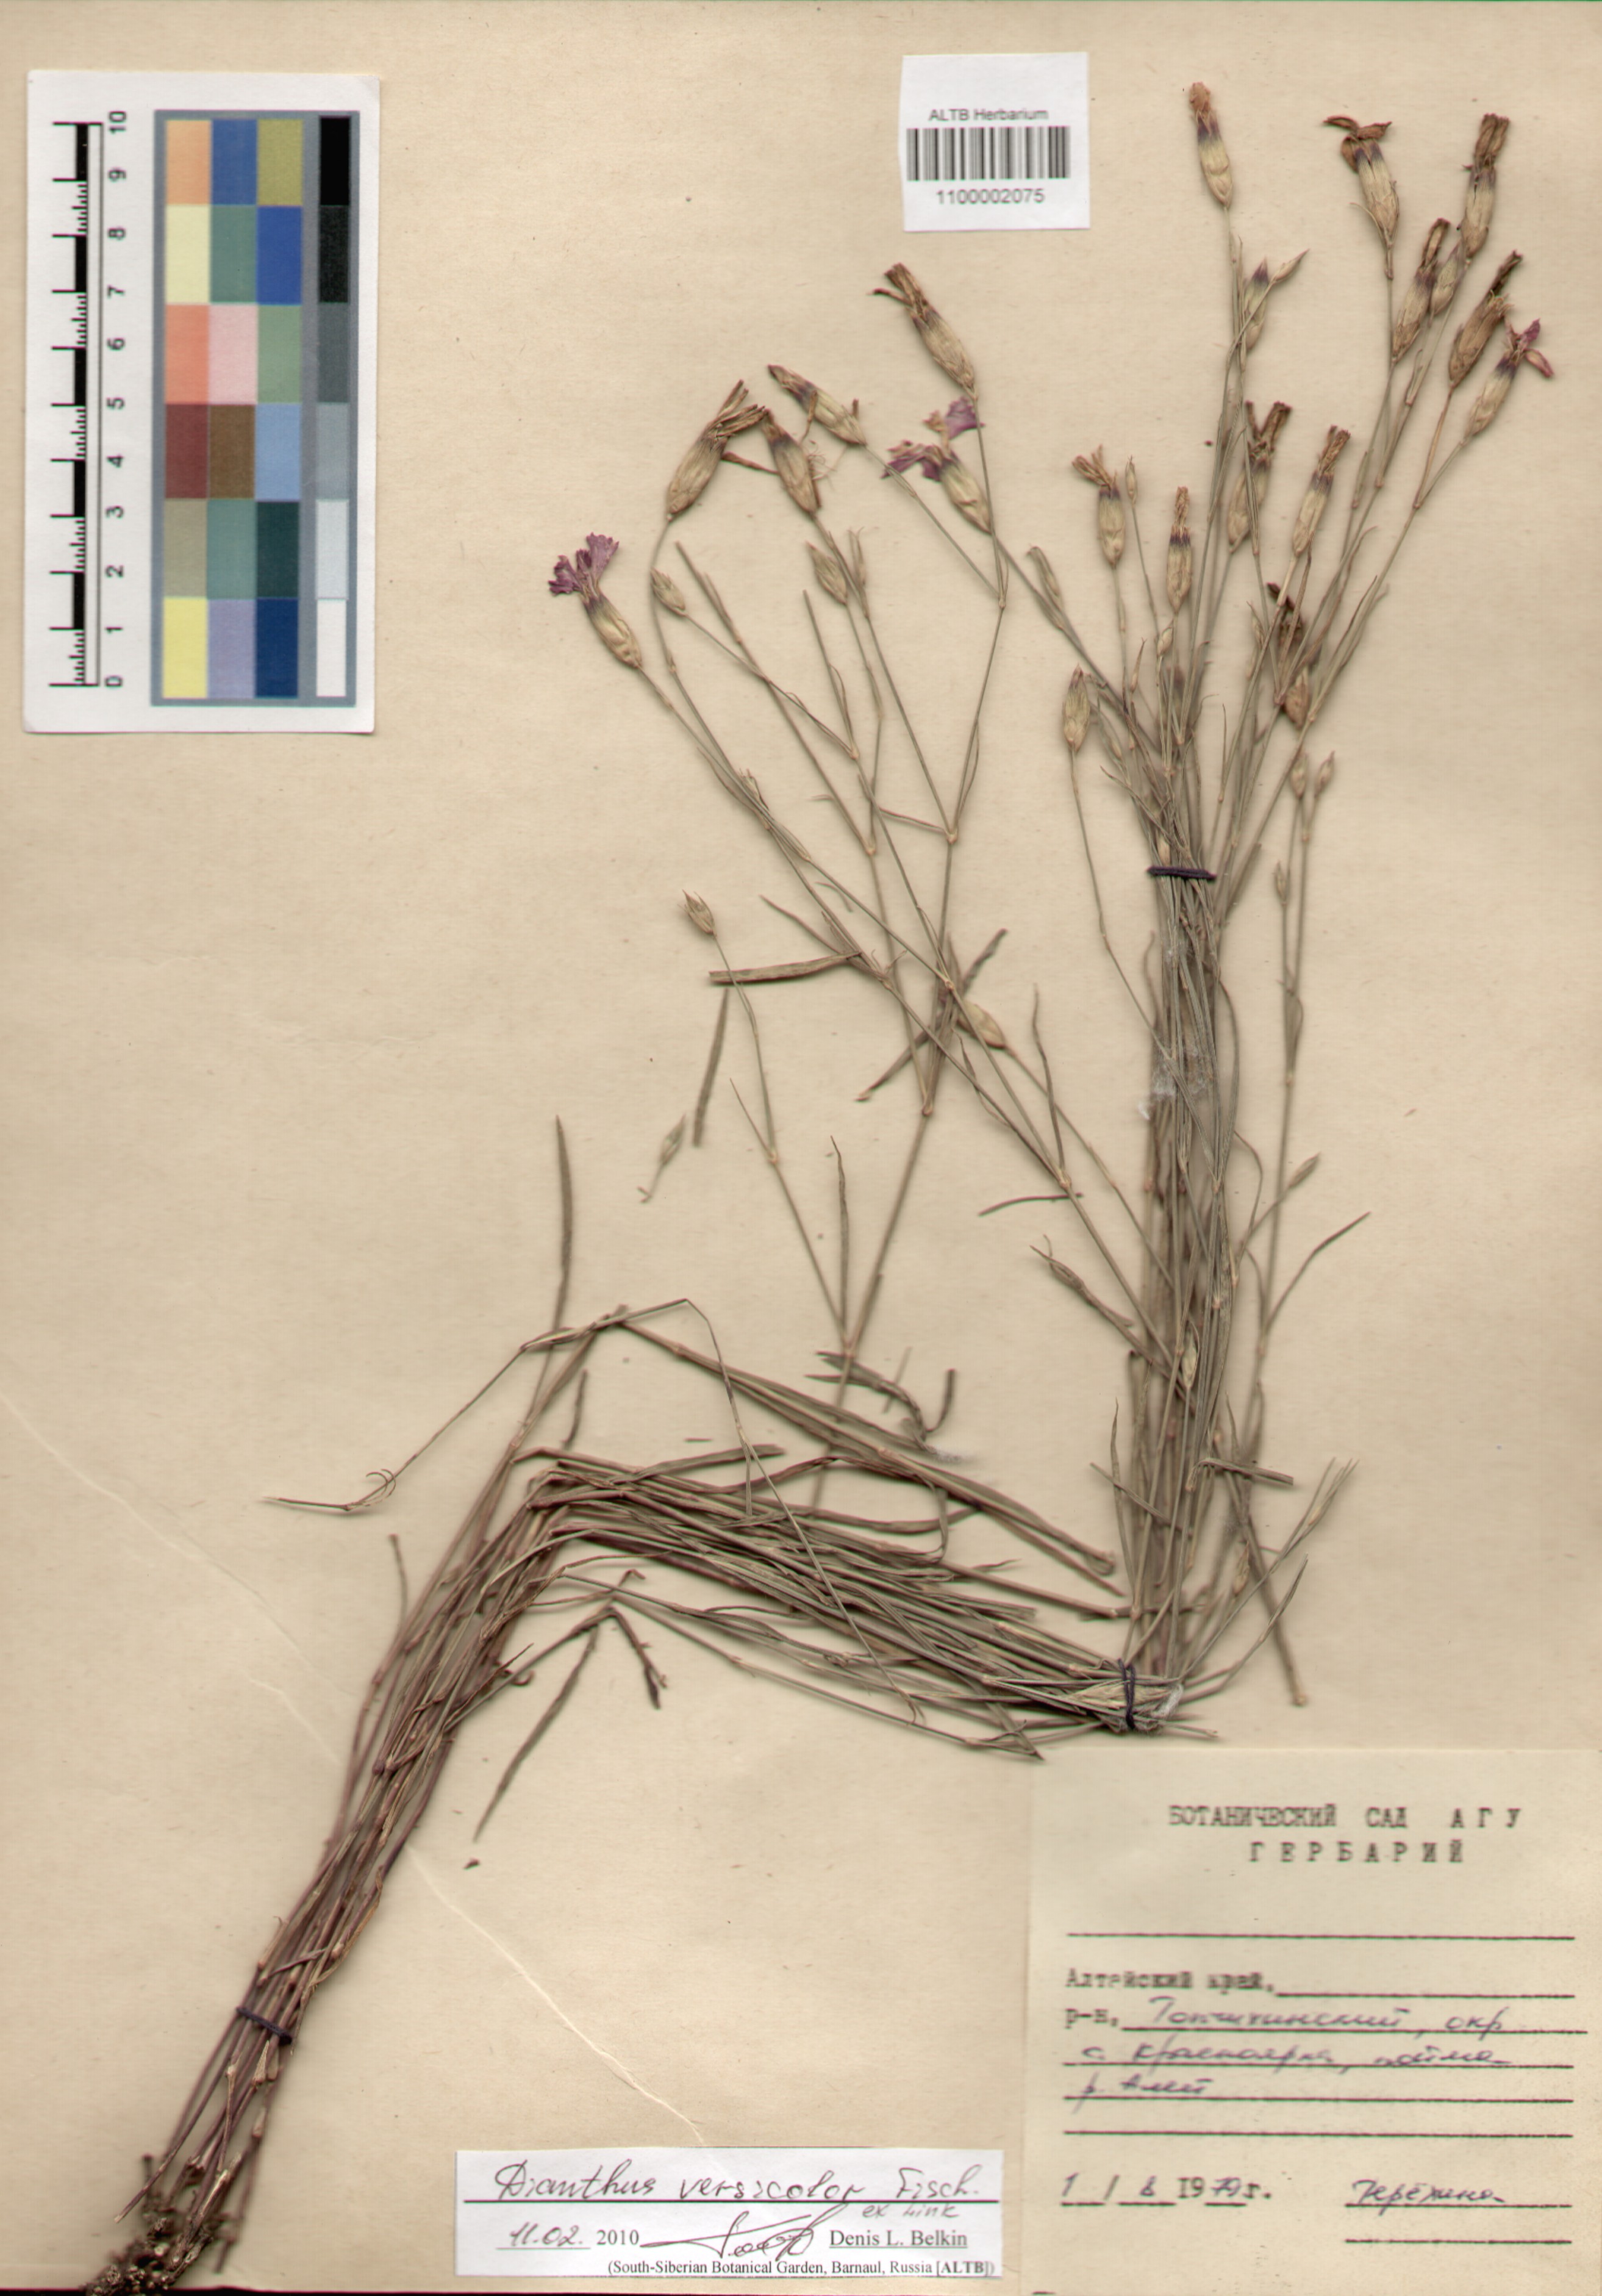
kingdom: Plantae
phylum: Tracheophyta
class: Magnoliopsida
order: Caryophyllales
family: Caryophyllaceae
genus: Dianthus
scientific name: Dianthus chinensis
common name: Rainbow pink
